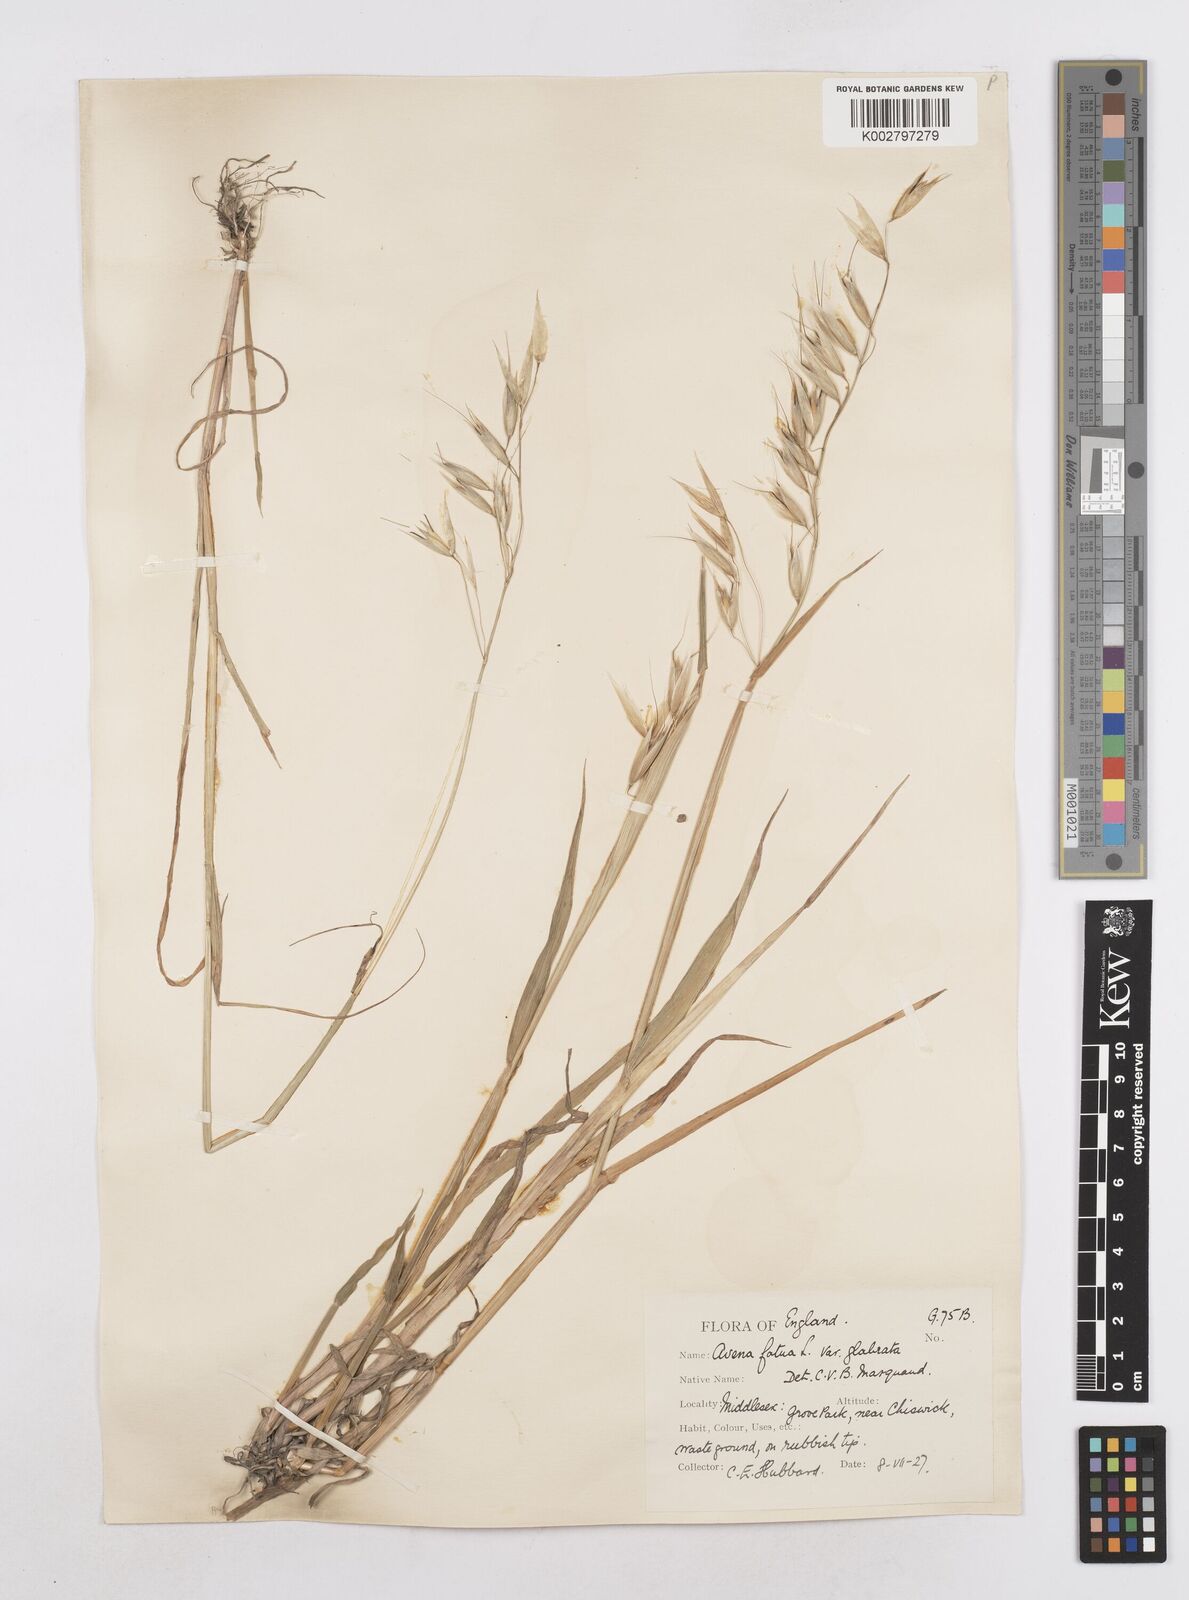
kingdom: Plantae
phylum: Tracheophyta
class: Liliopsida
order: Poales
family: Poaceae
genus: Avena
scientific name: Avena fatua
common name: Wild oat
